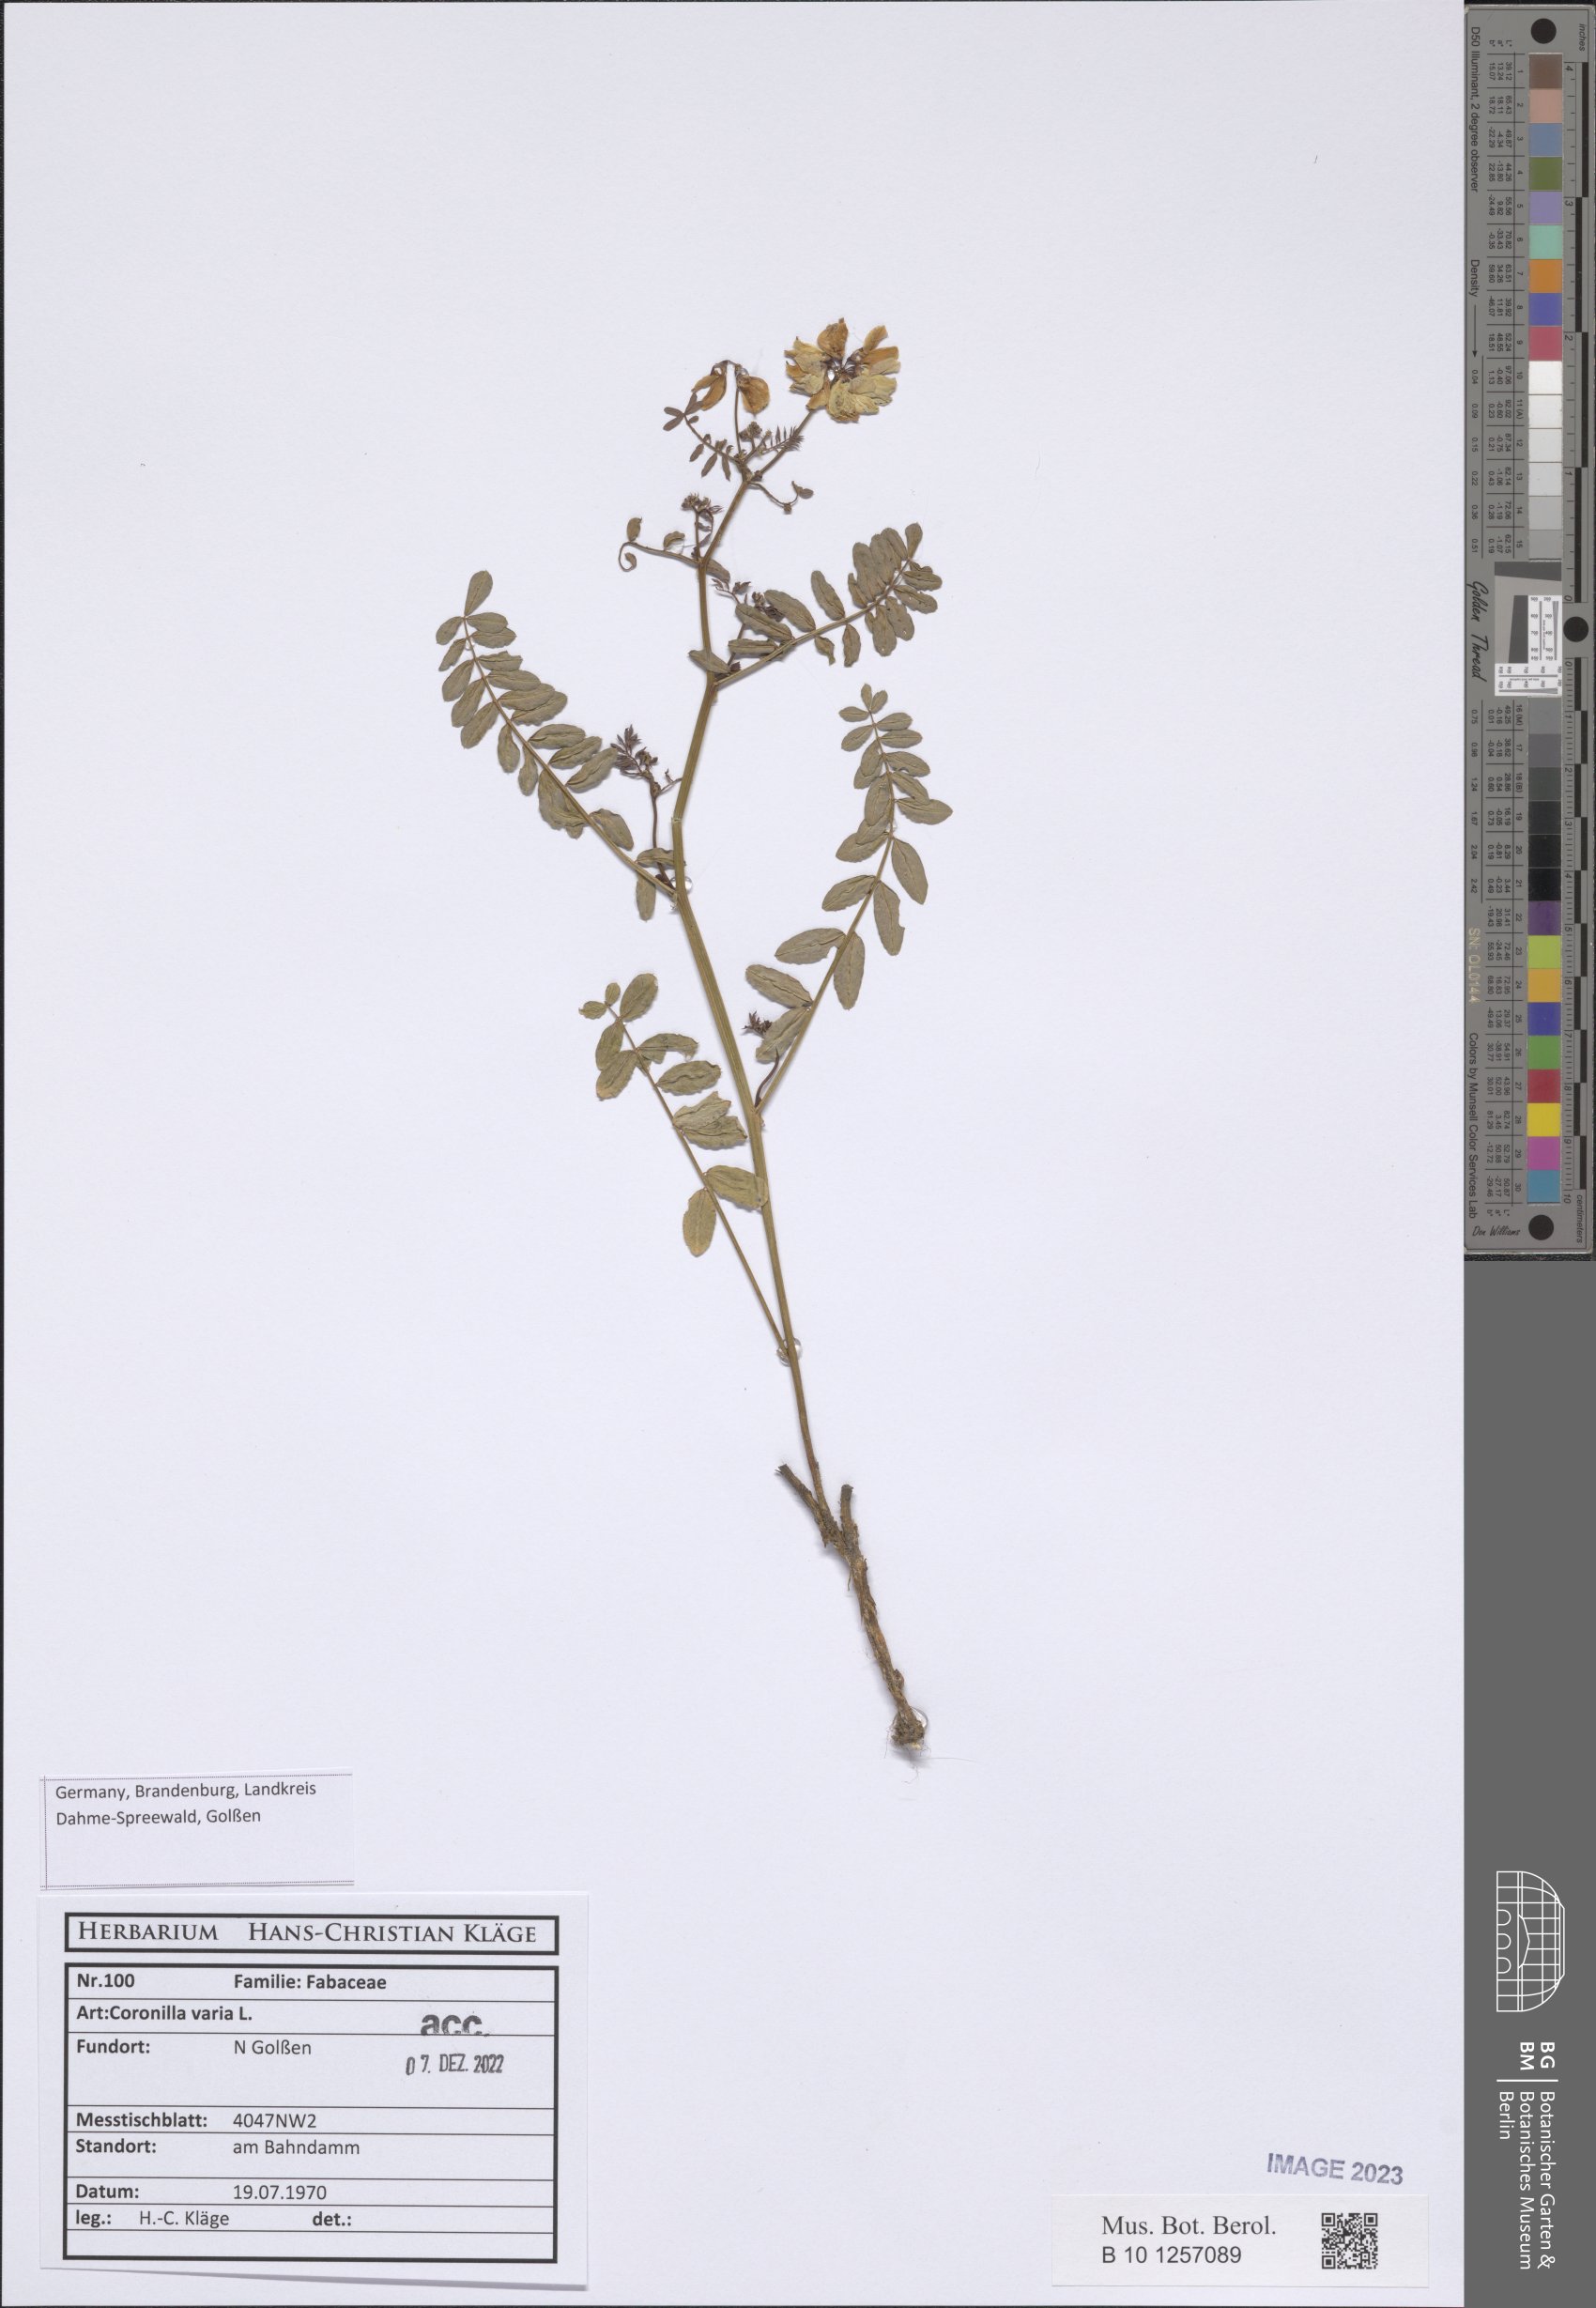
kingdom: Plantae
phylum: Tracheophyta
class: Magnoliopsida
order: Fabales
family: Fabaceae
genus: Coronilla
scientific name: Coronilla varia
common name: Crownvetch
